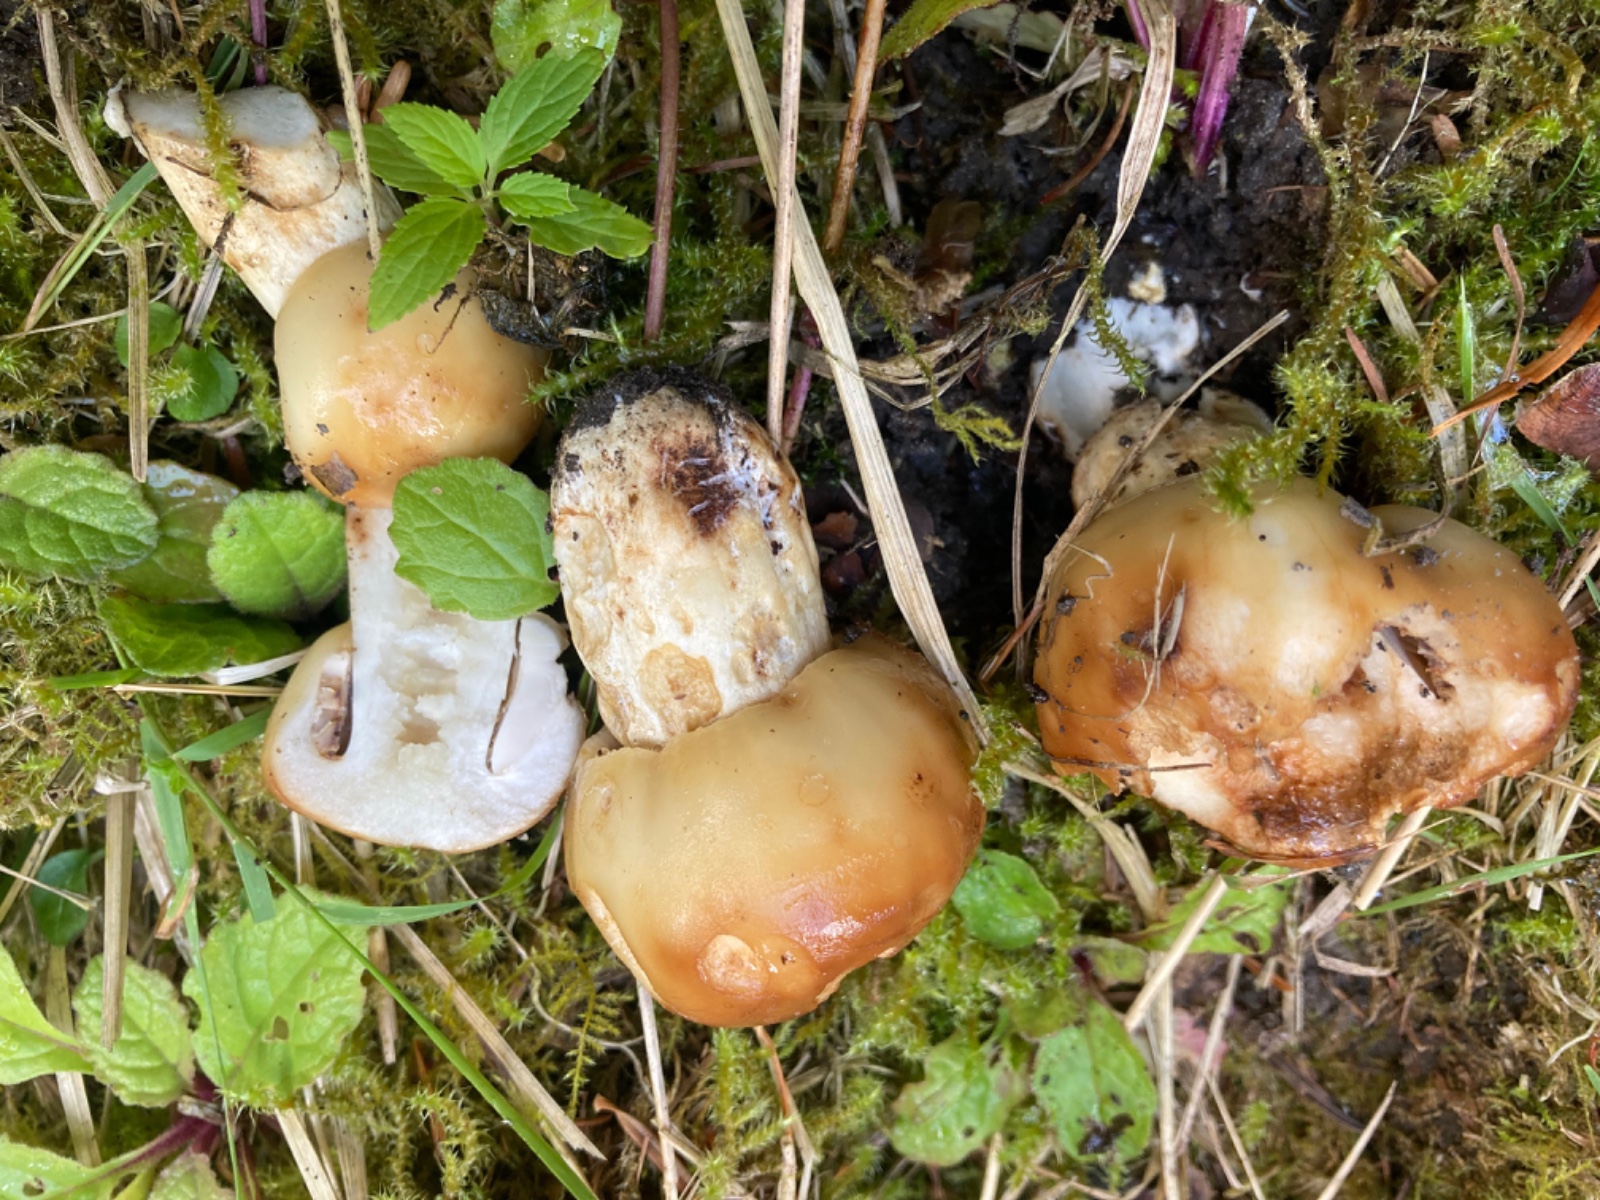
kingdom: Fungi
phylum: Basidiomycota
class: Agaricomycetes
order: Russulales
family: Russulaceae
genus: Russula
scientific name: Russula foetens
